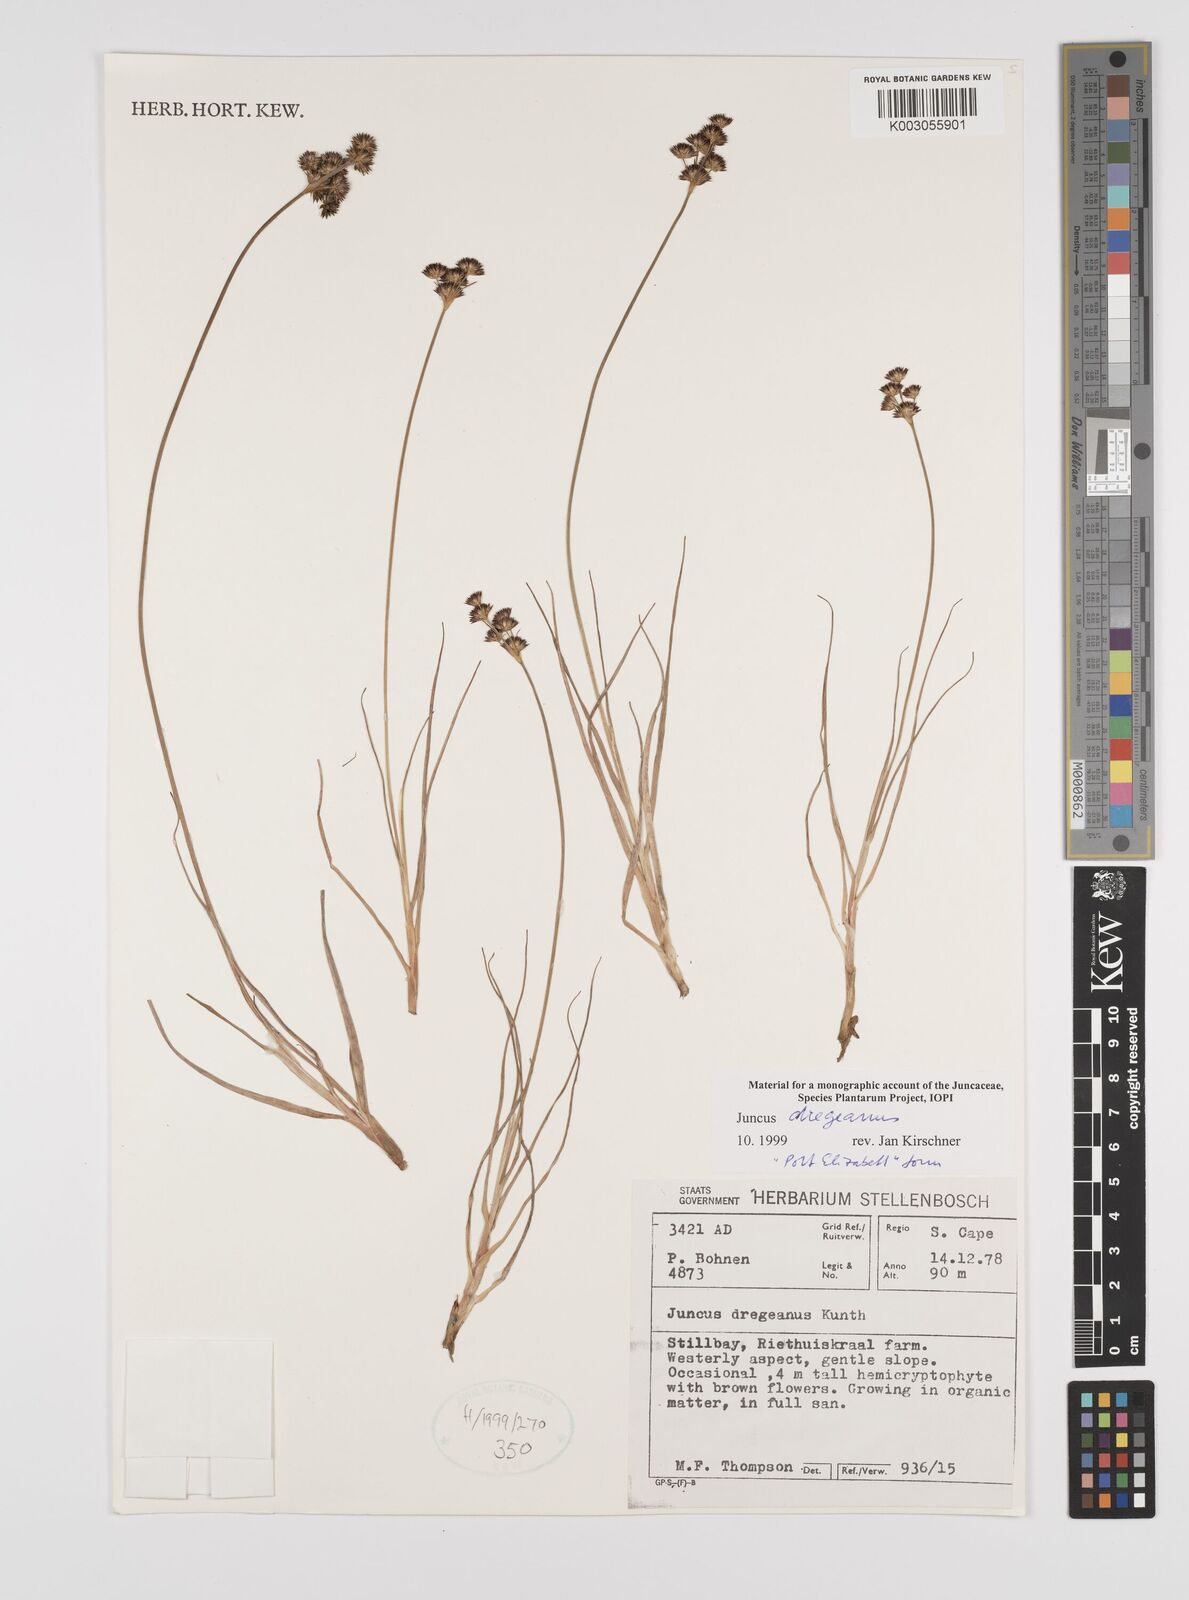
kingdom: Plantae
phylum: Tracheophyta
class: Liliopsida
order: Poales
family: Juncaceae
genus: Juncus
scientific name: Juncus dregeanus
